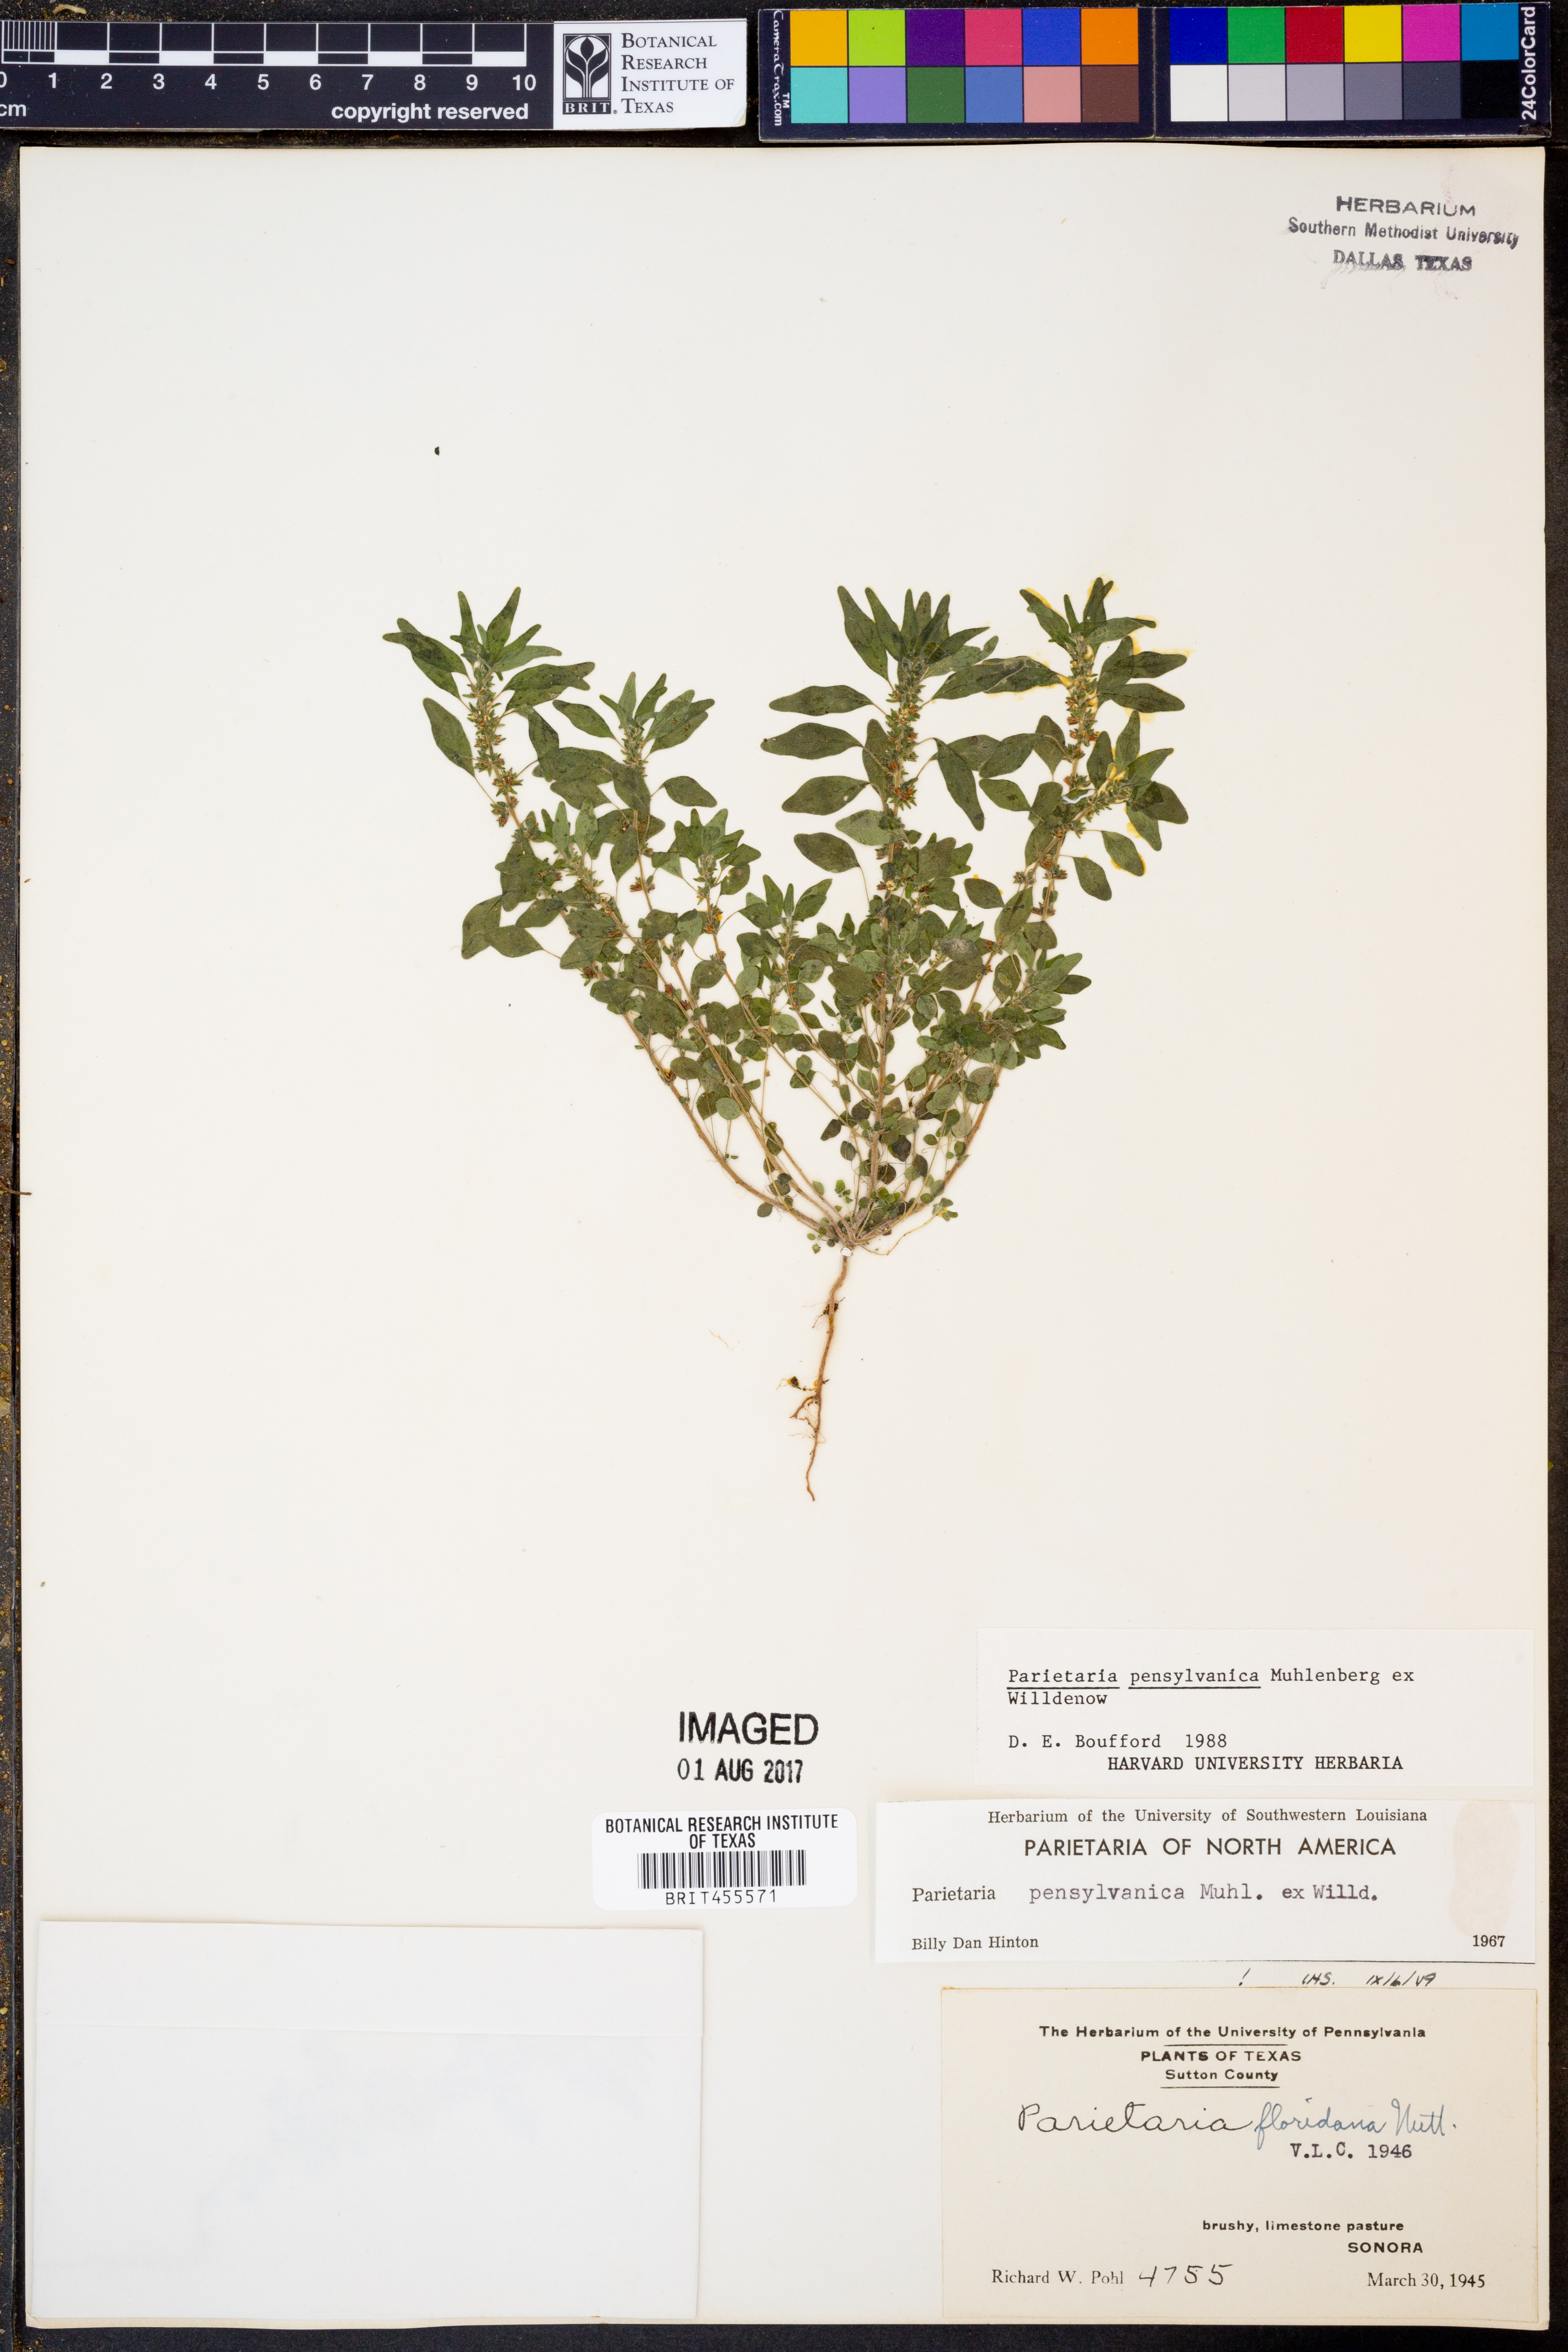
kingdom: Plantae
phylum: Tracheophyta
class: Magnoliopsida
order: Rosales
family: Urticaceae
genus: Parietaria
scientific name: Parietaria pensylvanica
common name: Pennsylvania pellitory
